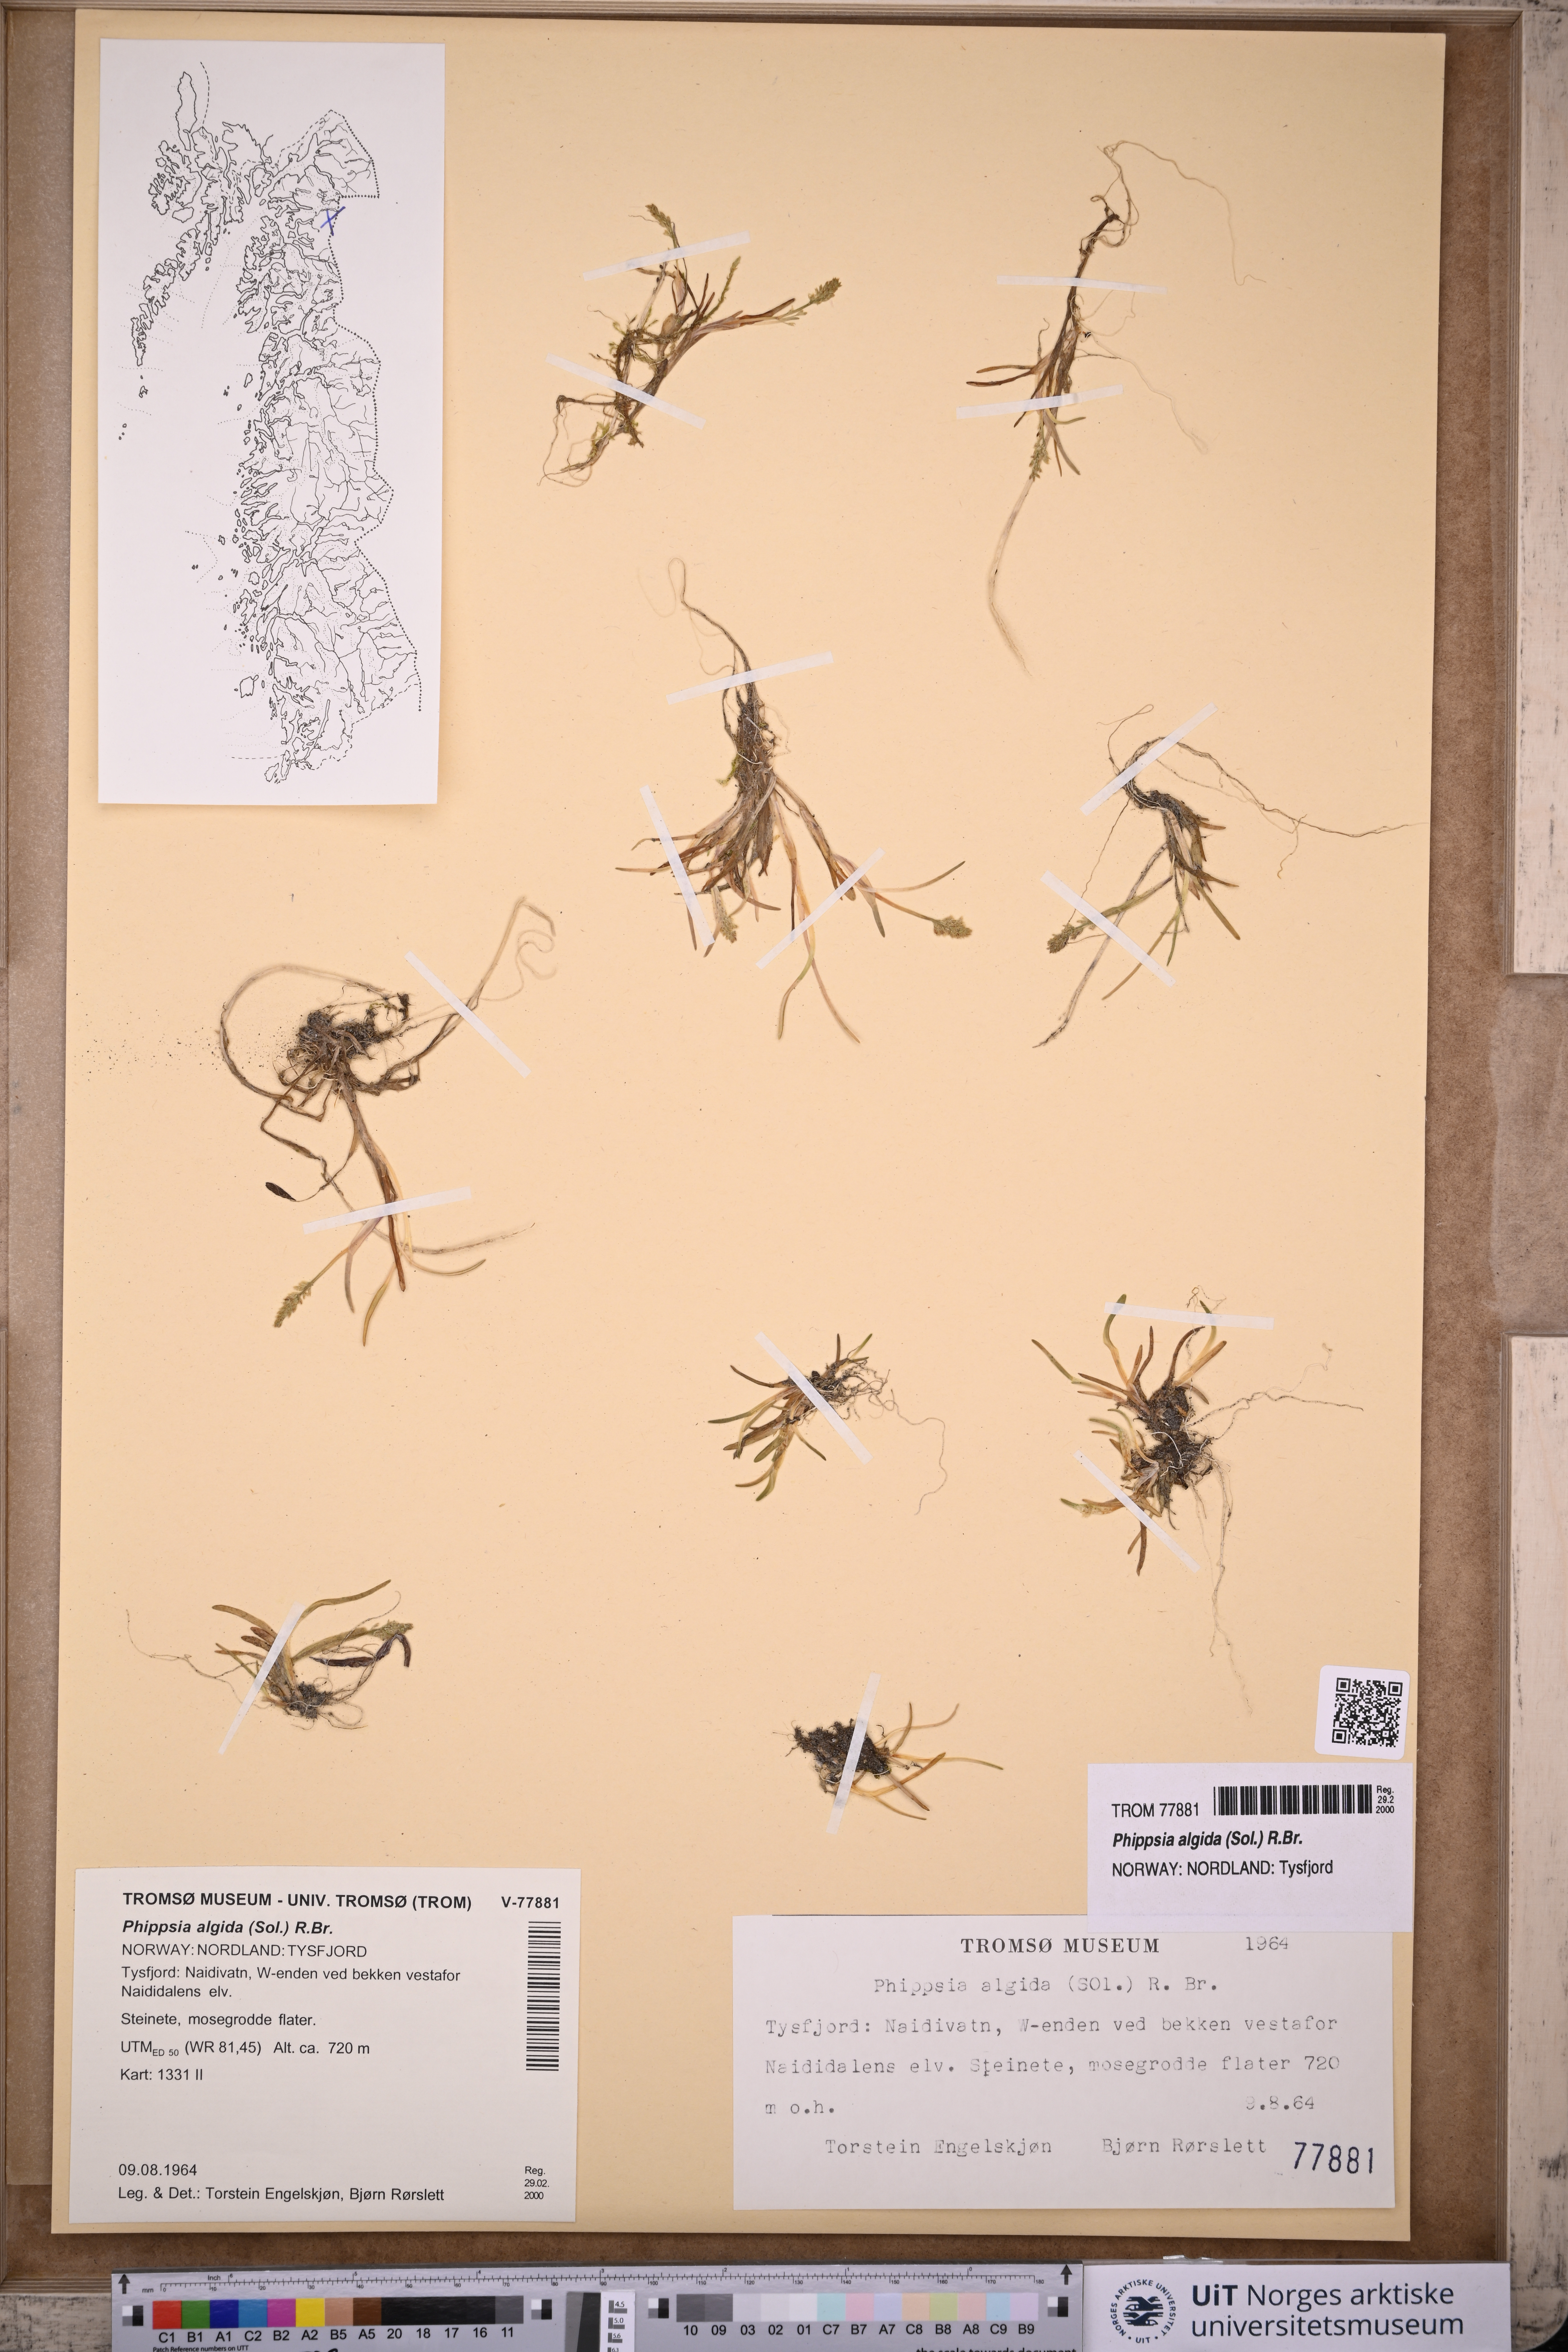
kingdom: Plantae
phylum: Tracheophyta
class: Liliopsida
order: Poales
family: Poaceae
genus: Phippsia
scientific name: Phippsia algida
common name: Ice grass
